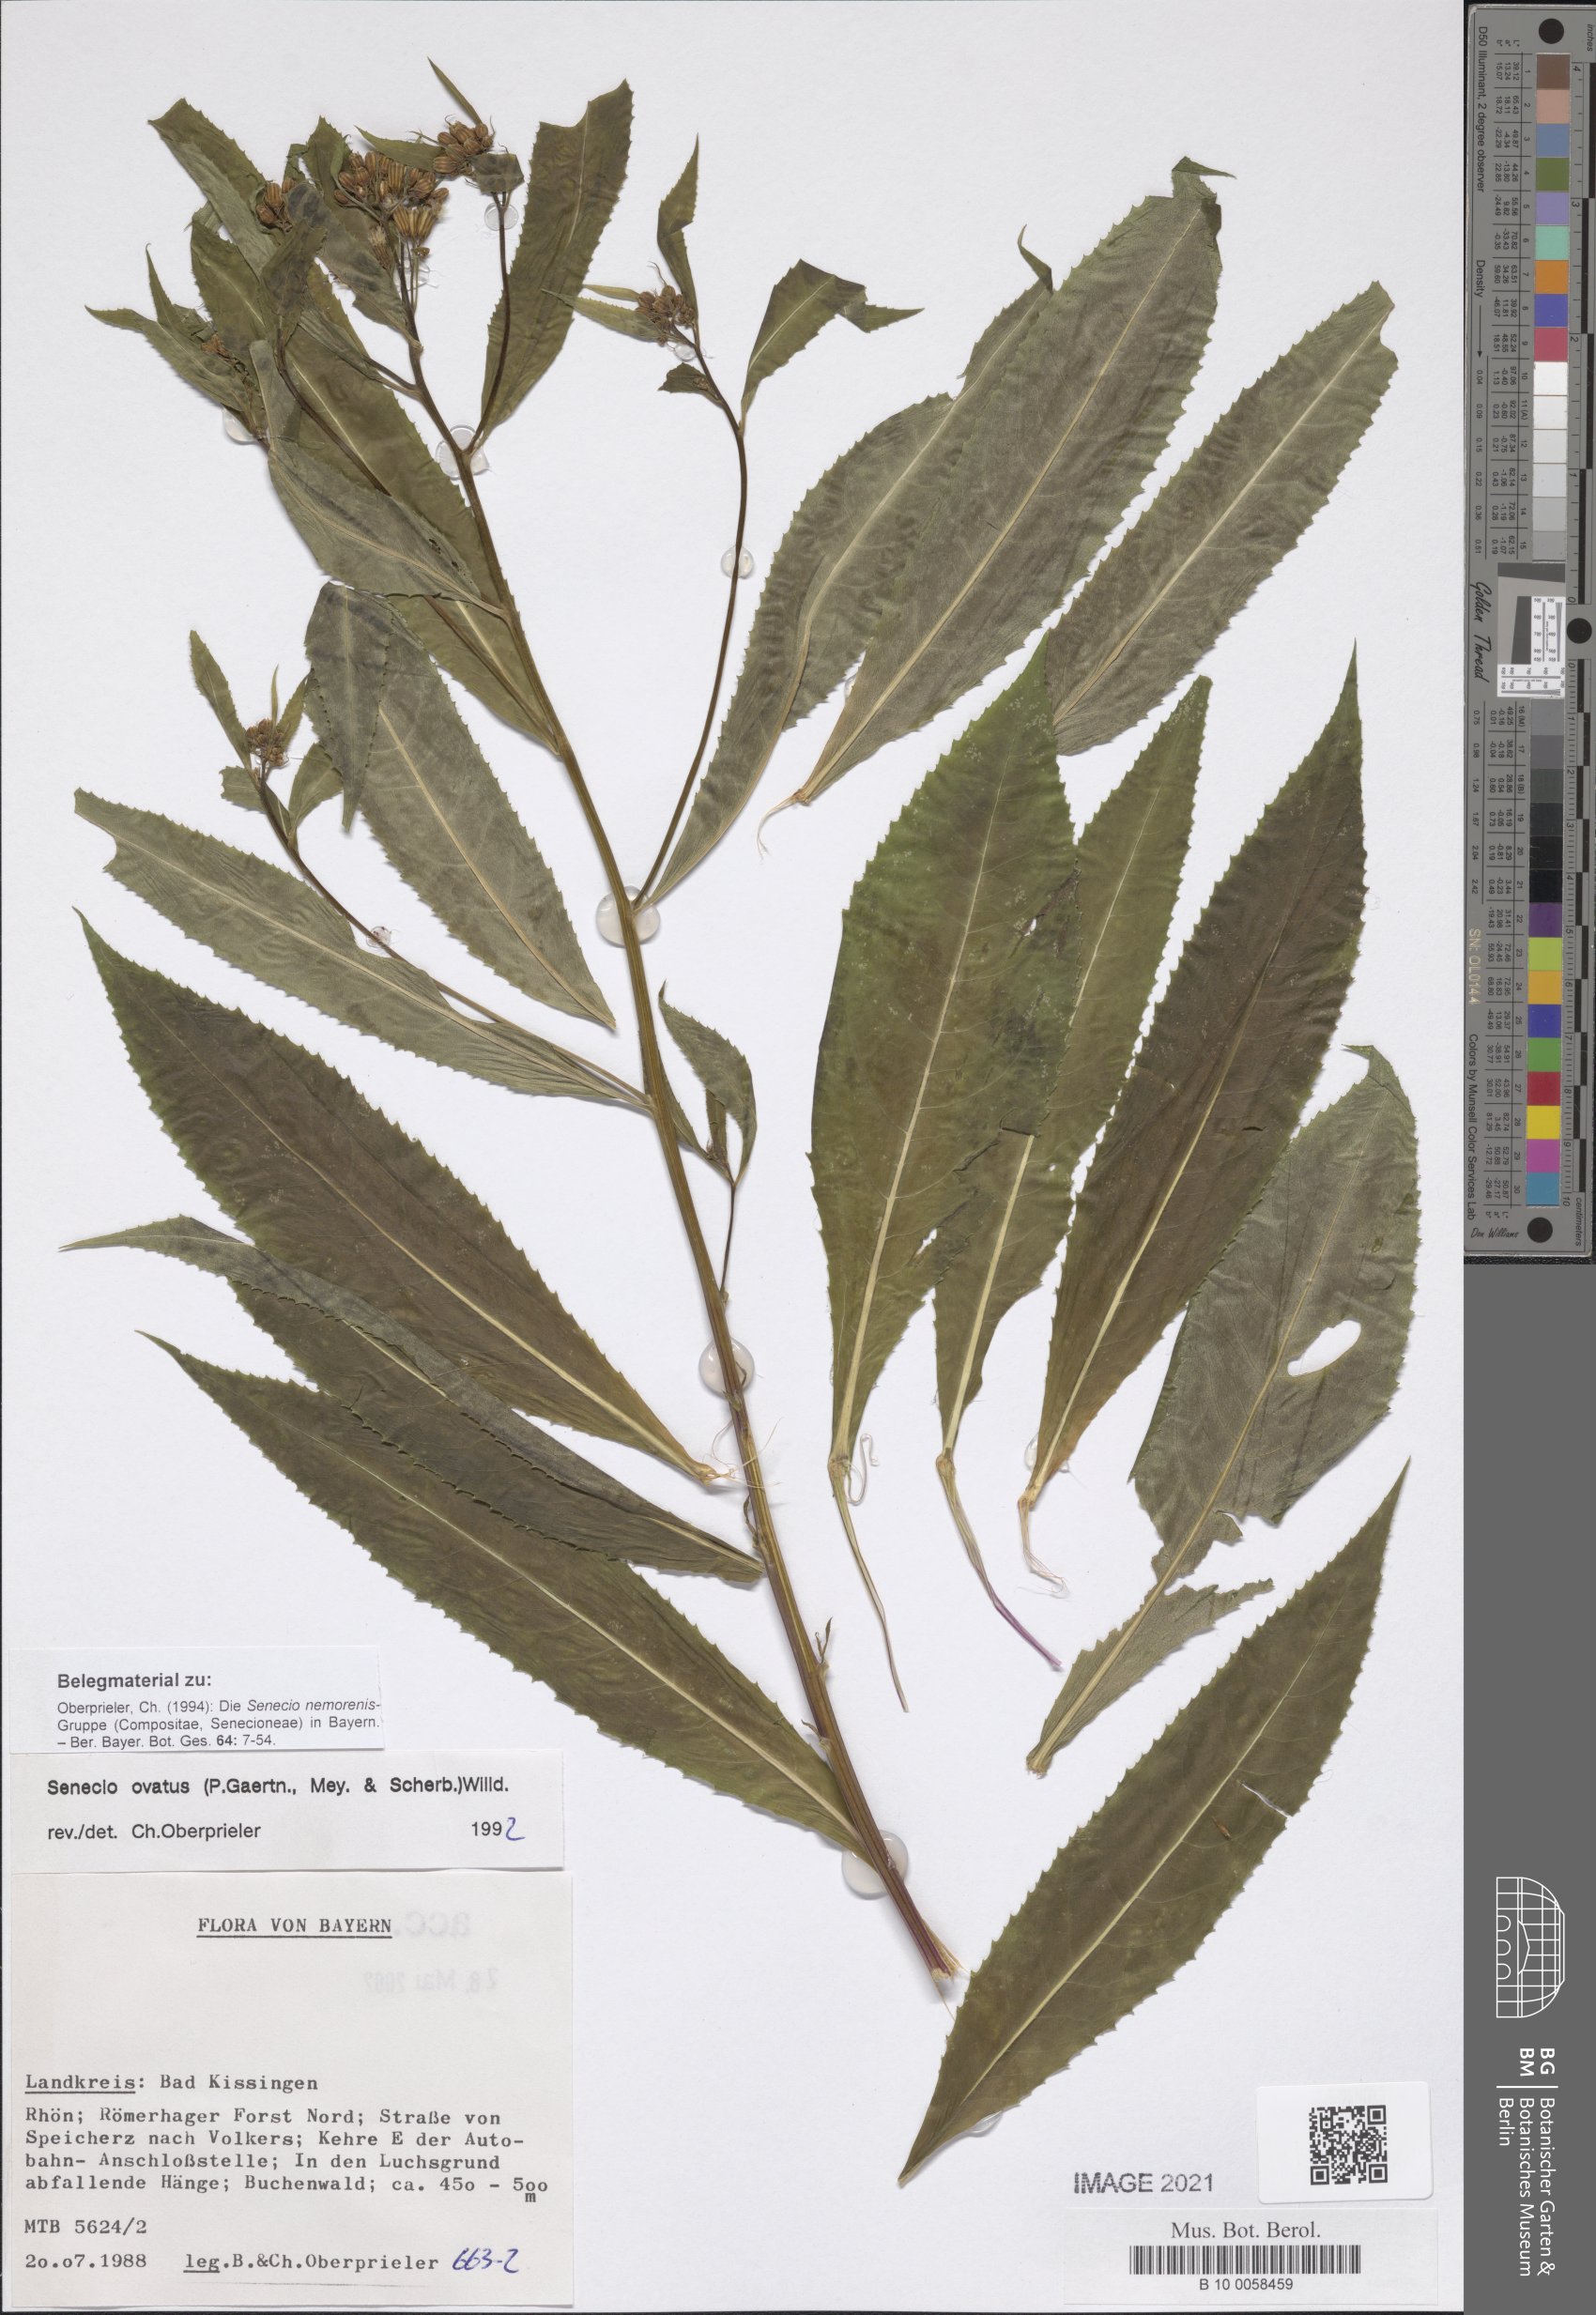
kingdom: Plantae
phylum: Tracheophyta
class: Magnoliopsida
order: Asterales
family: Asteraceae
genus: Senecio
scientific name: Senecio ovatus
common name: Wood ragwort
